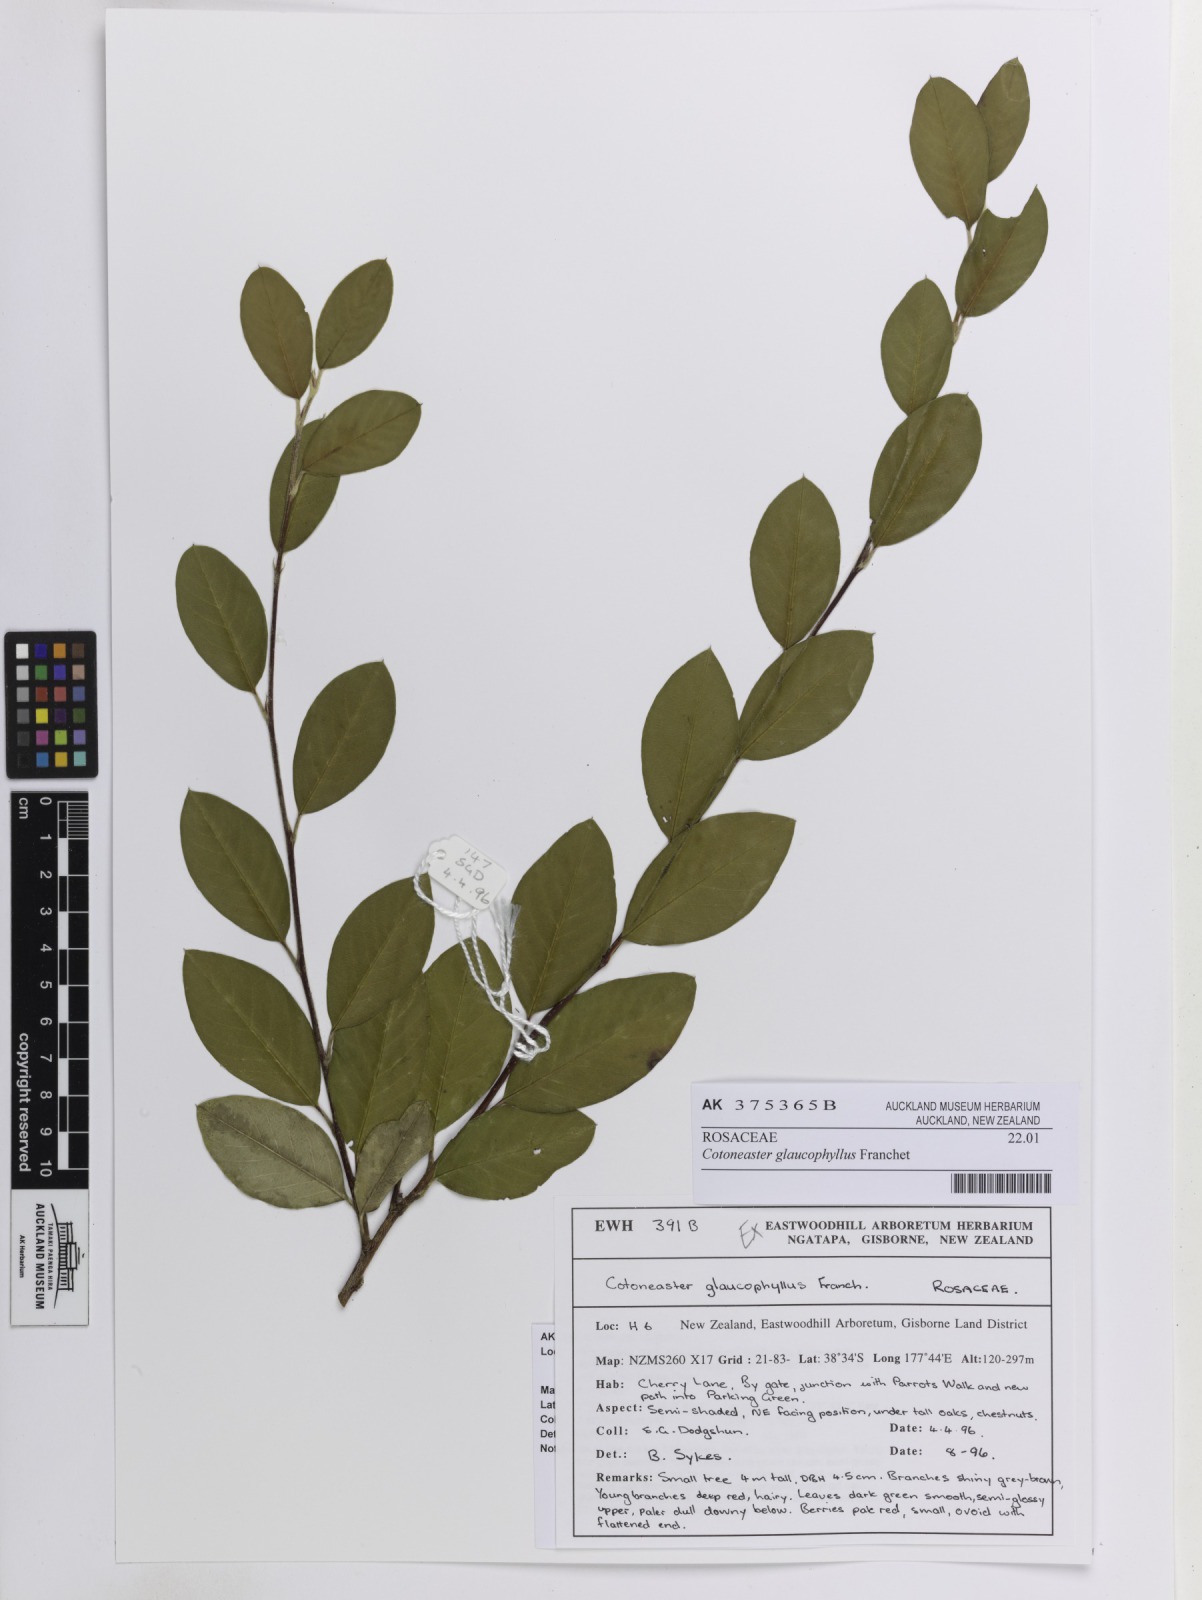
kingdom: Plantae
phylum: Tracheophyta
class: Magnoliopsida
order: Rosales
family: Rosaceae
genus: Cotoneaster
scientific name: Cotoneaster glaucophyllus
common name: Glaucous cotoneaster
